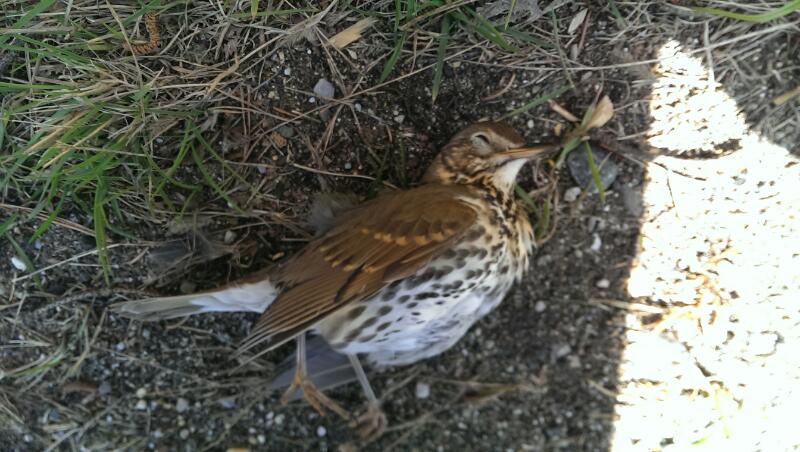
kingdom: Animalia
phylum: Chordata
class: Aves
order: Passeriformes
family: Turdidae
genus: Turdus
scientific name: Turdus philomelos
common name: Song thrush
